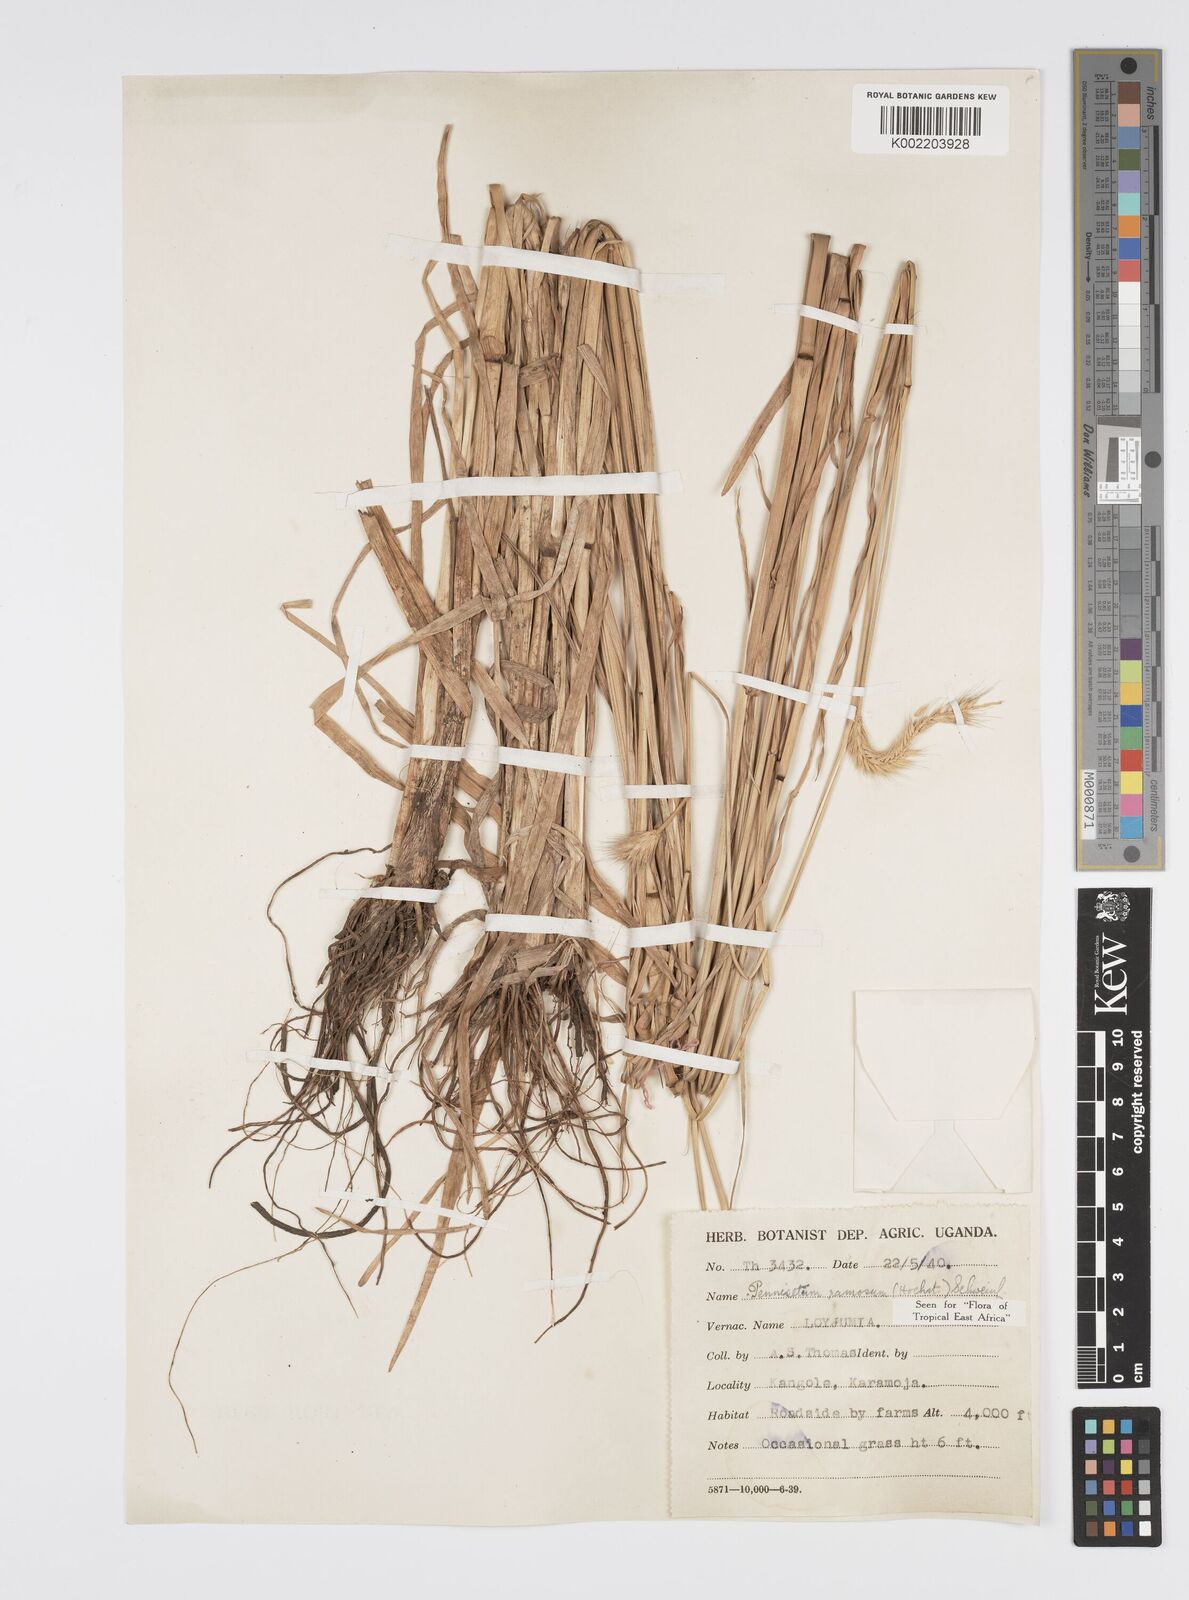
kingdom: Plantae
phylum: Tracheophyta
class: Liliopsida
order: Poales
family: Poaceae
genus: Cenchrus
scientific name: Cenchrus ramosus
